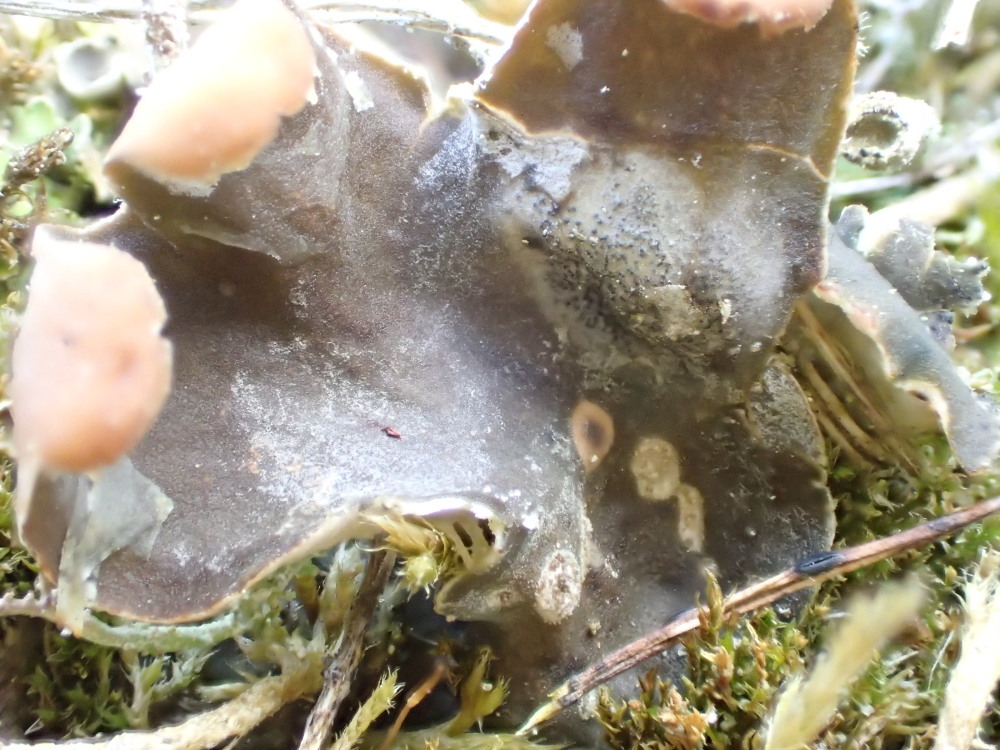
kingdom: Fungi
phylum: Ascomycota
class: Lecanoromycetes
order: Peltigerales
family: Peltigeraceae
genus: Peltigera
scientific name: Peltigera didactyla
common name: liden skjoldlav
